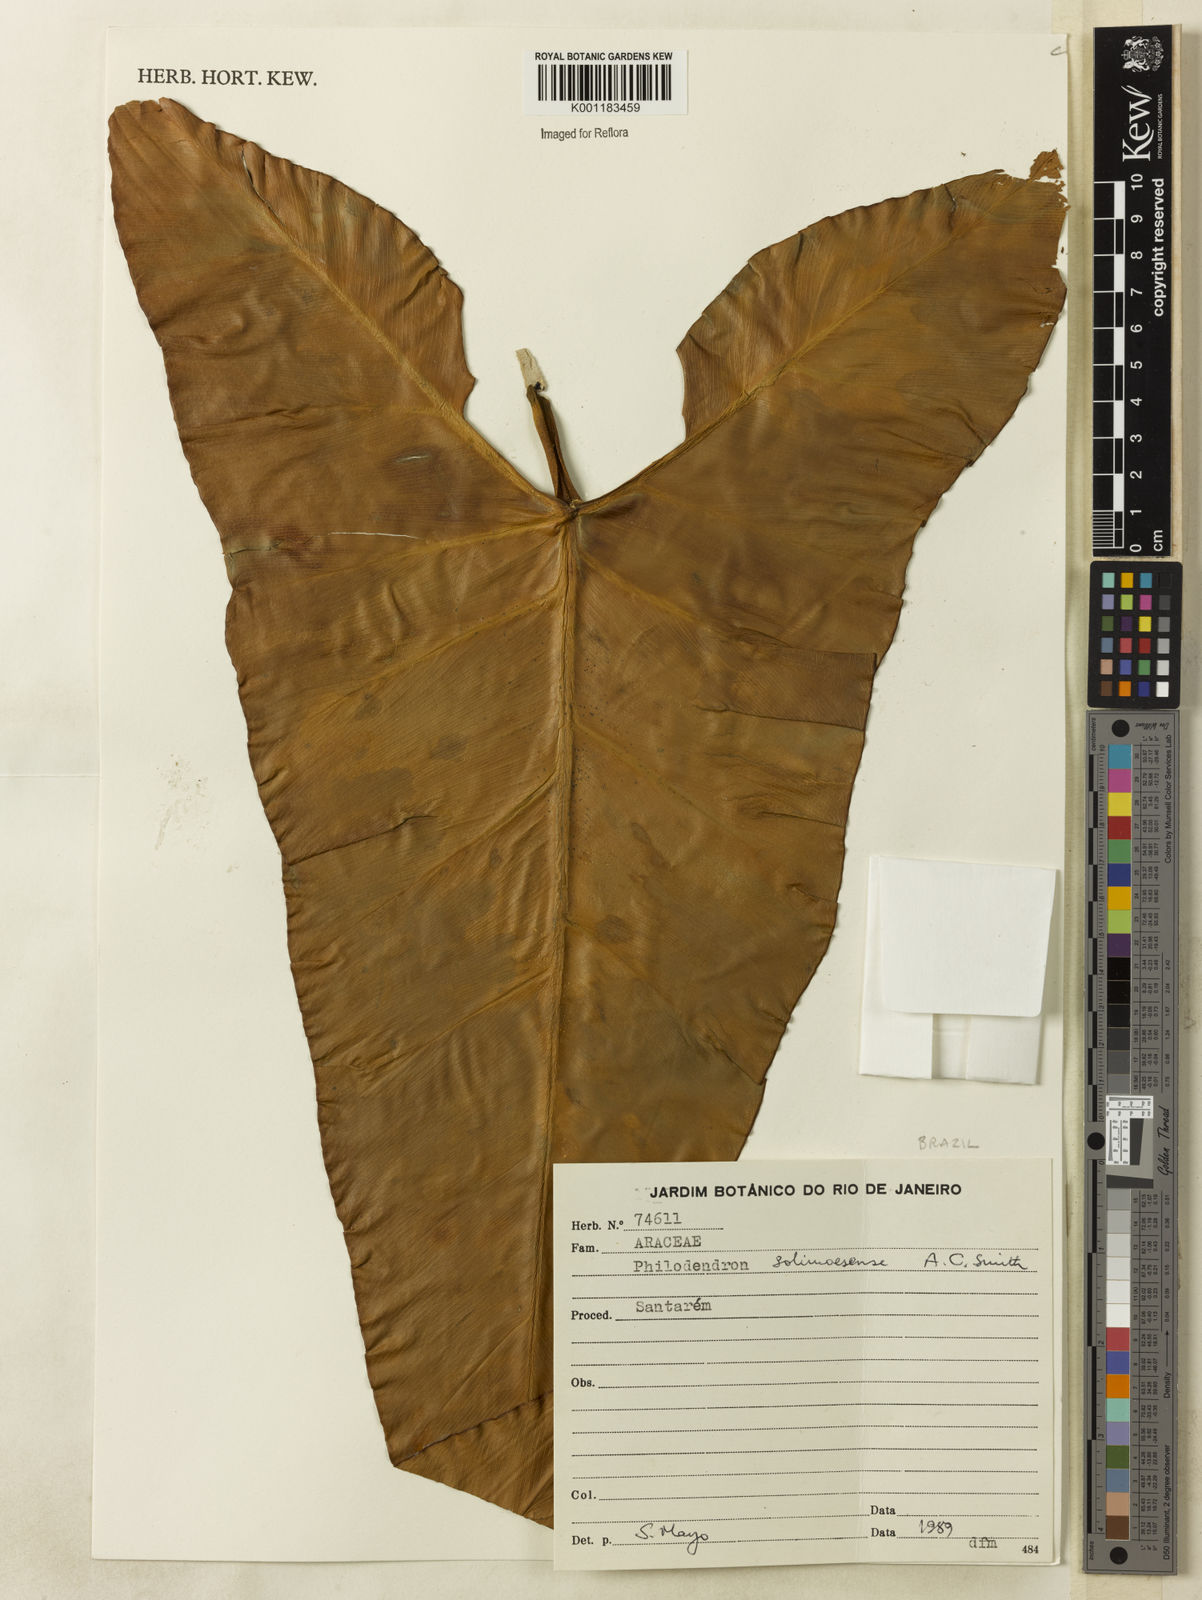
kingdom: Plantae
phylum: Tracheophyta
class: Liliopsida
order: Alismatales
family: Araceae
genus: Thaumatophyllum
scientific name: Thaumatophyllum solimoesense
